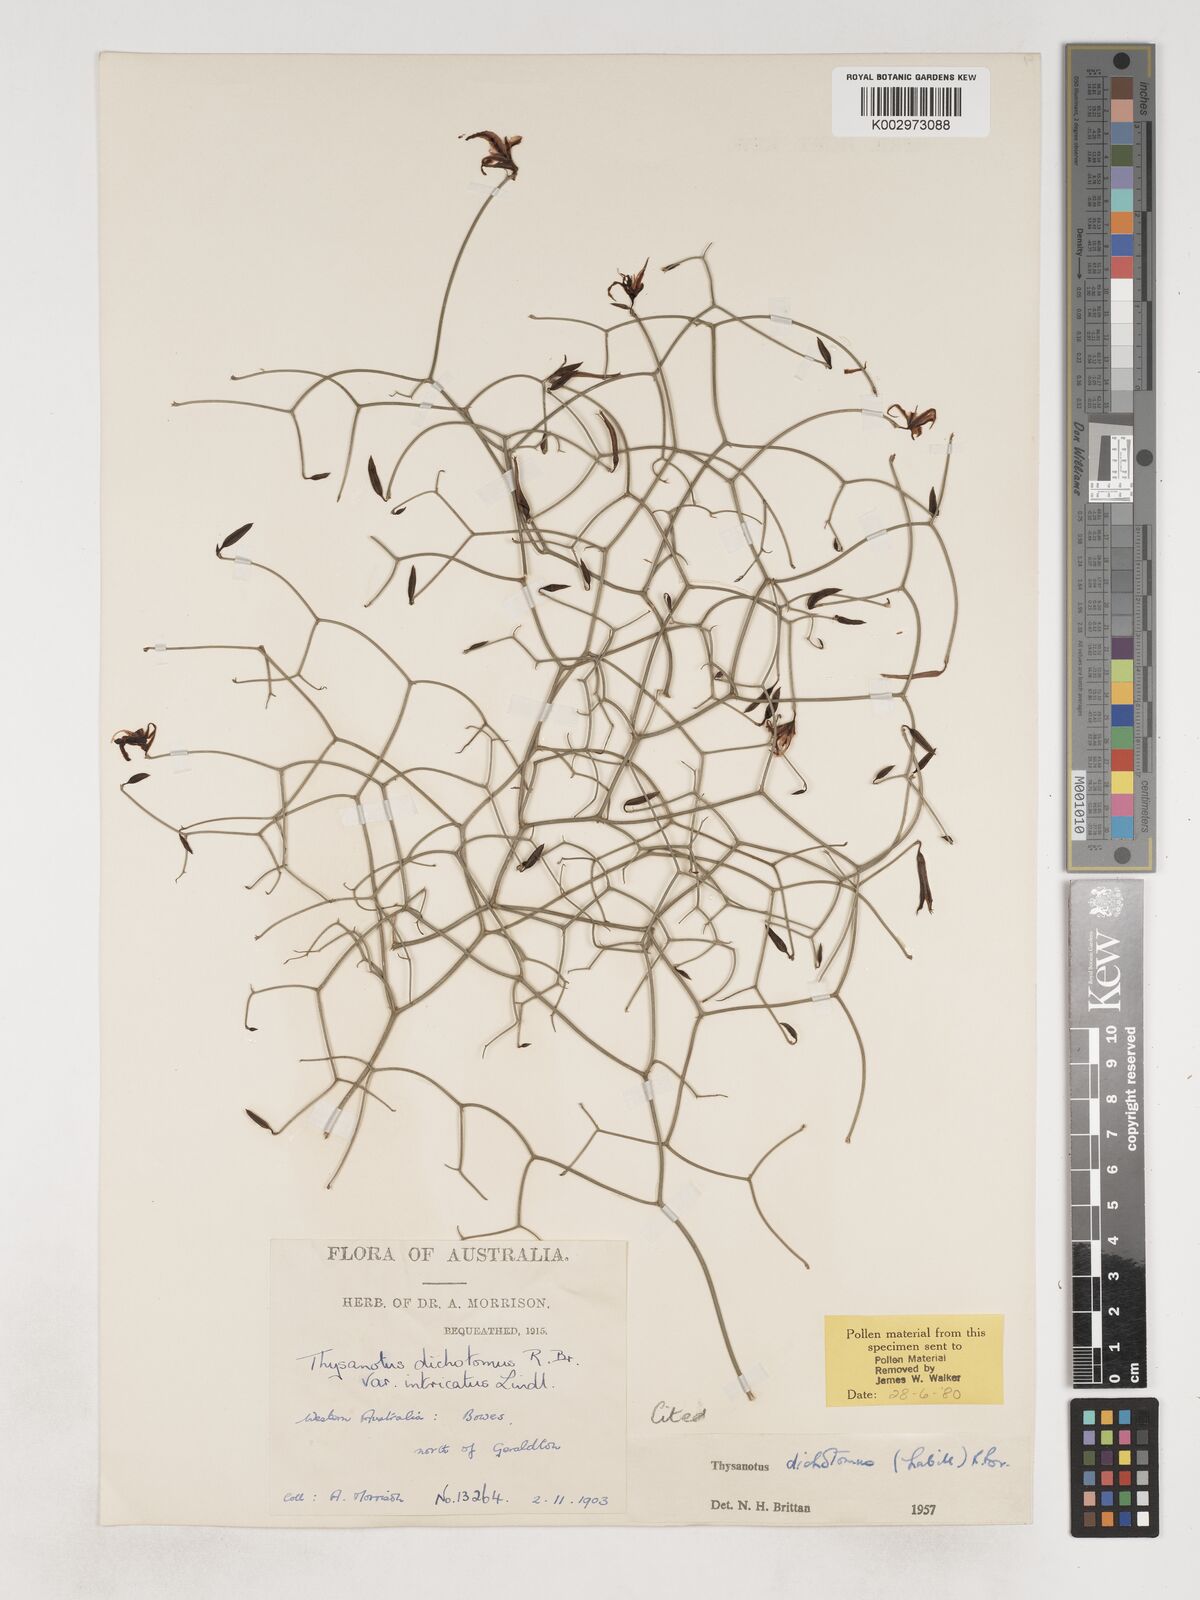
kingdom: Plantae
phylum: Tracheophyta
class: Liliopsida
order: Asparagales
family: Asparagaceae
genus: Thysanotus
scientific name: Thysanotus dichotomus
